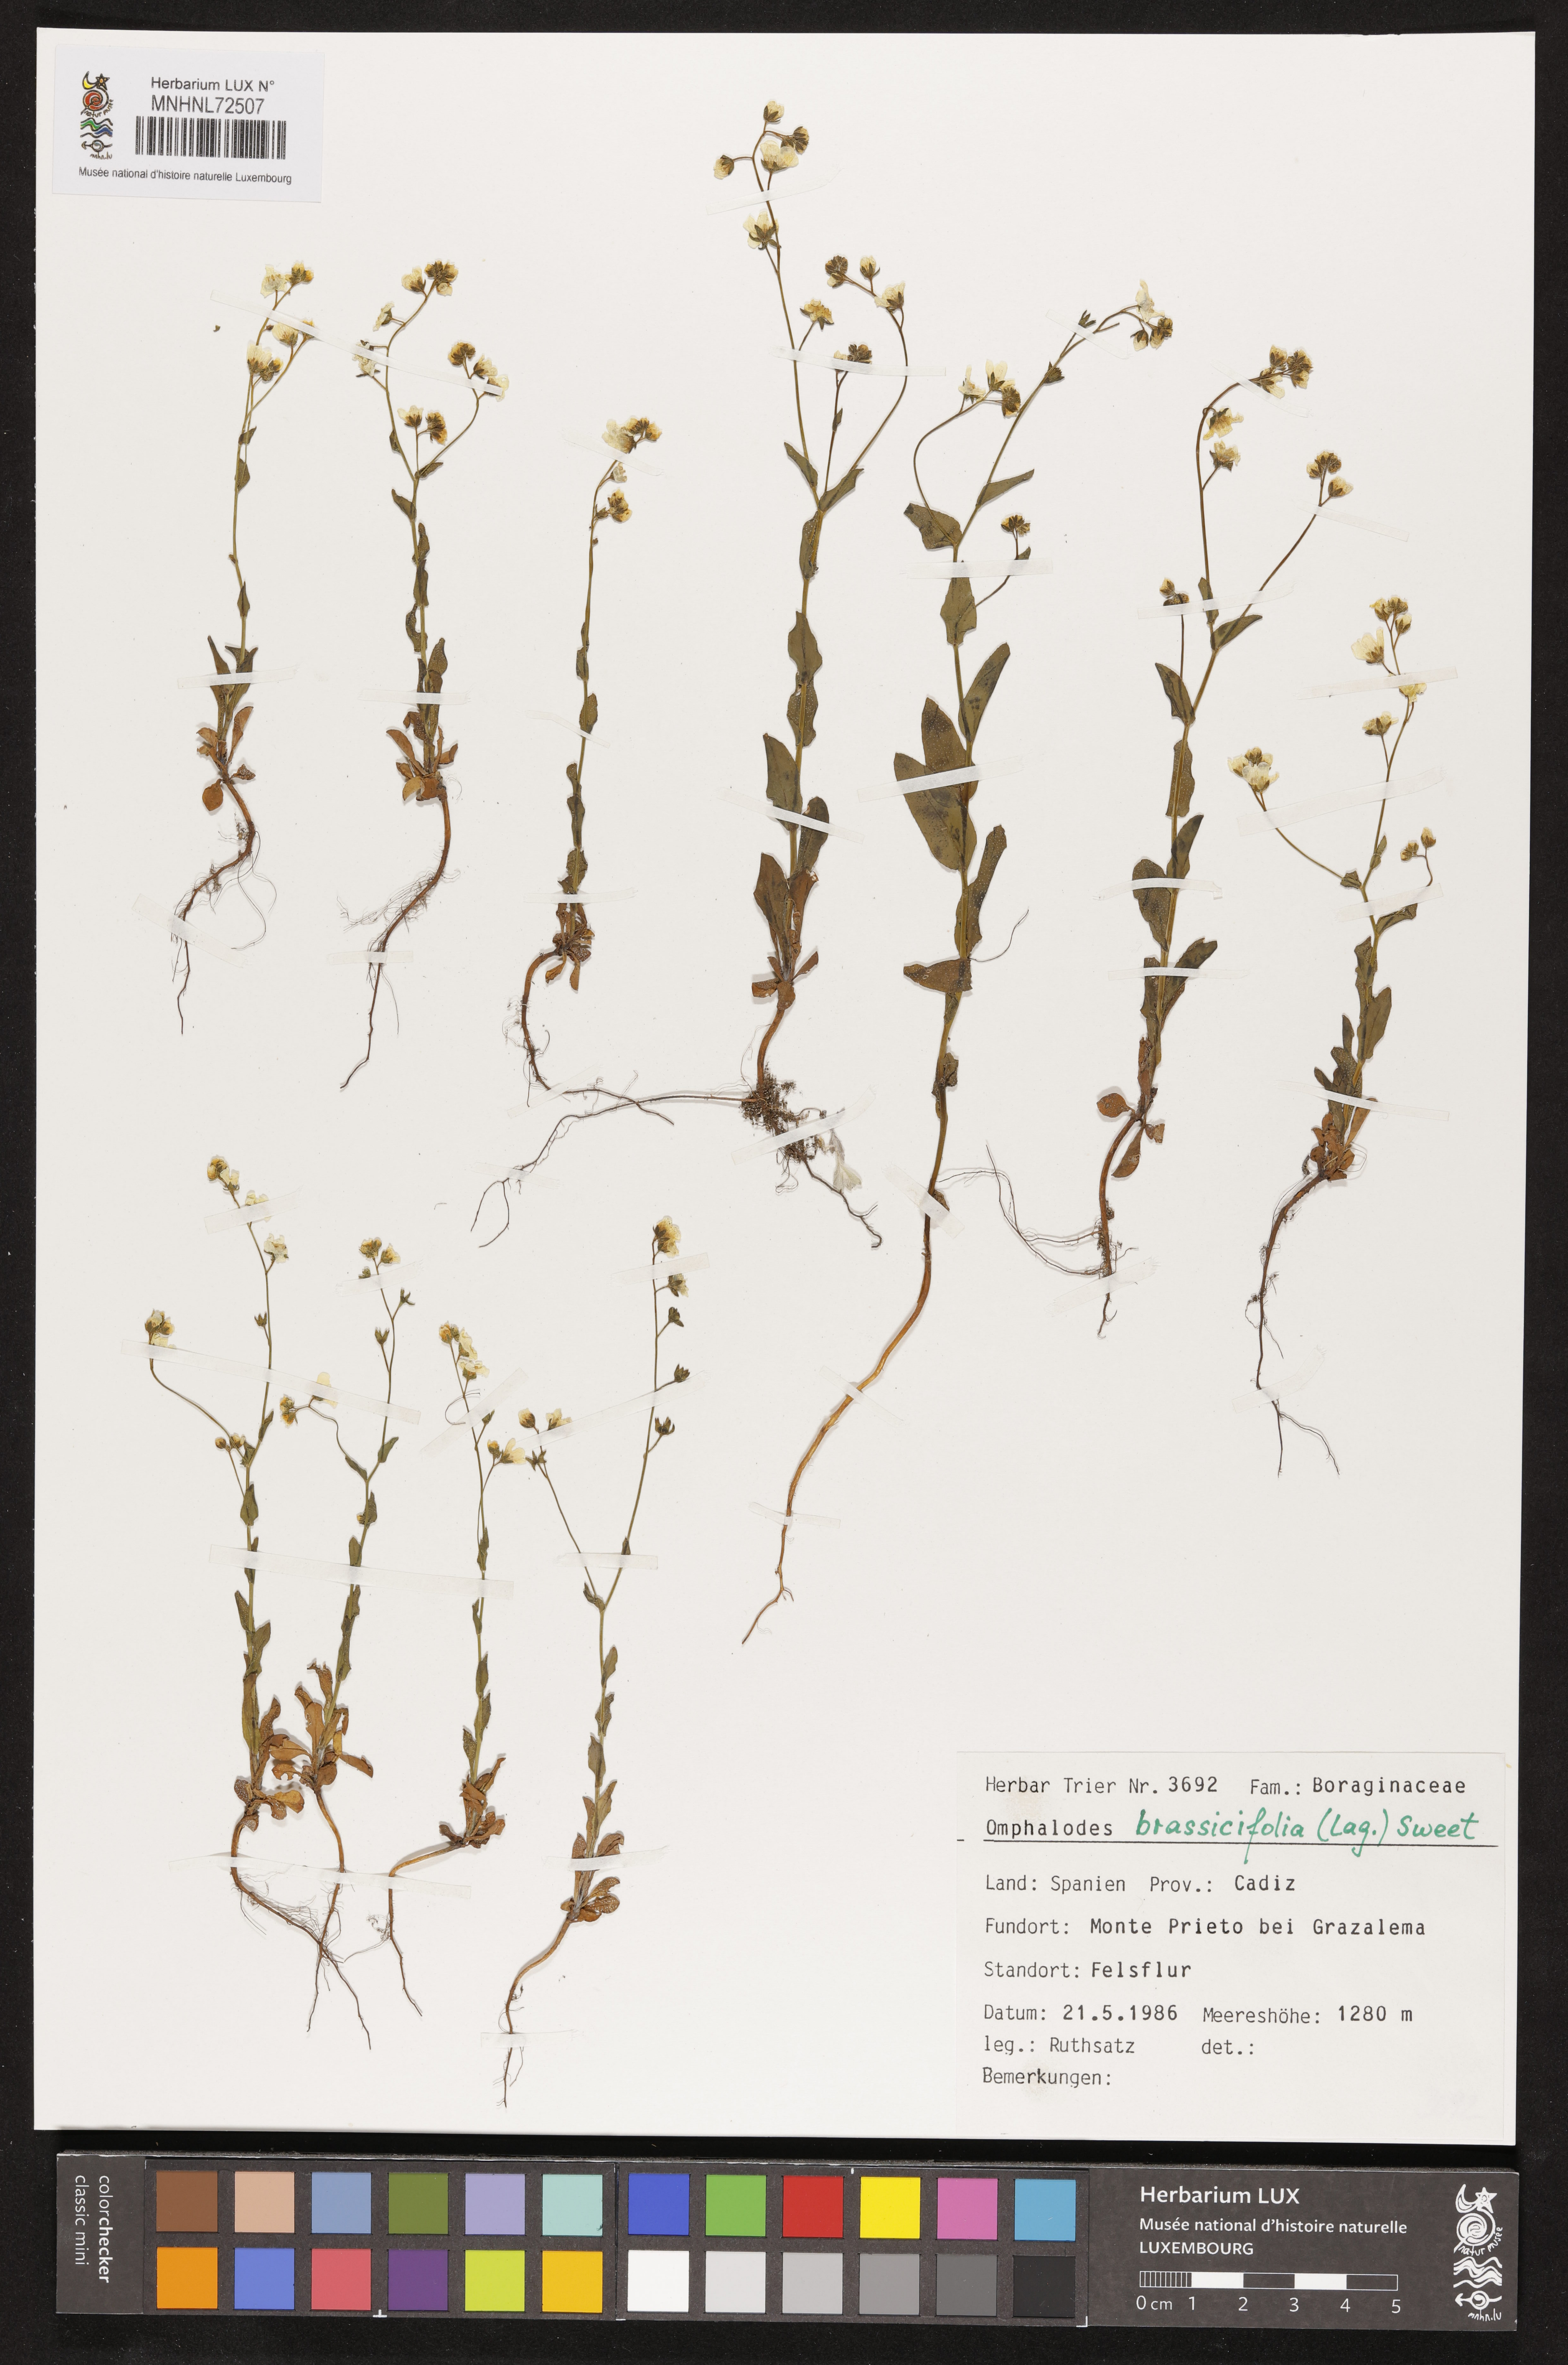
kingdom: Plantae
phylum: Tracheophyta
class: Magnoliopsida
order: Boraginales
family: Boraginaceae
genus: Iberodes
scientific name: Iberodes brassicifolia
